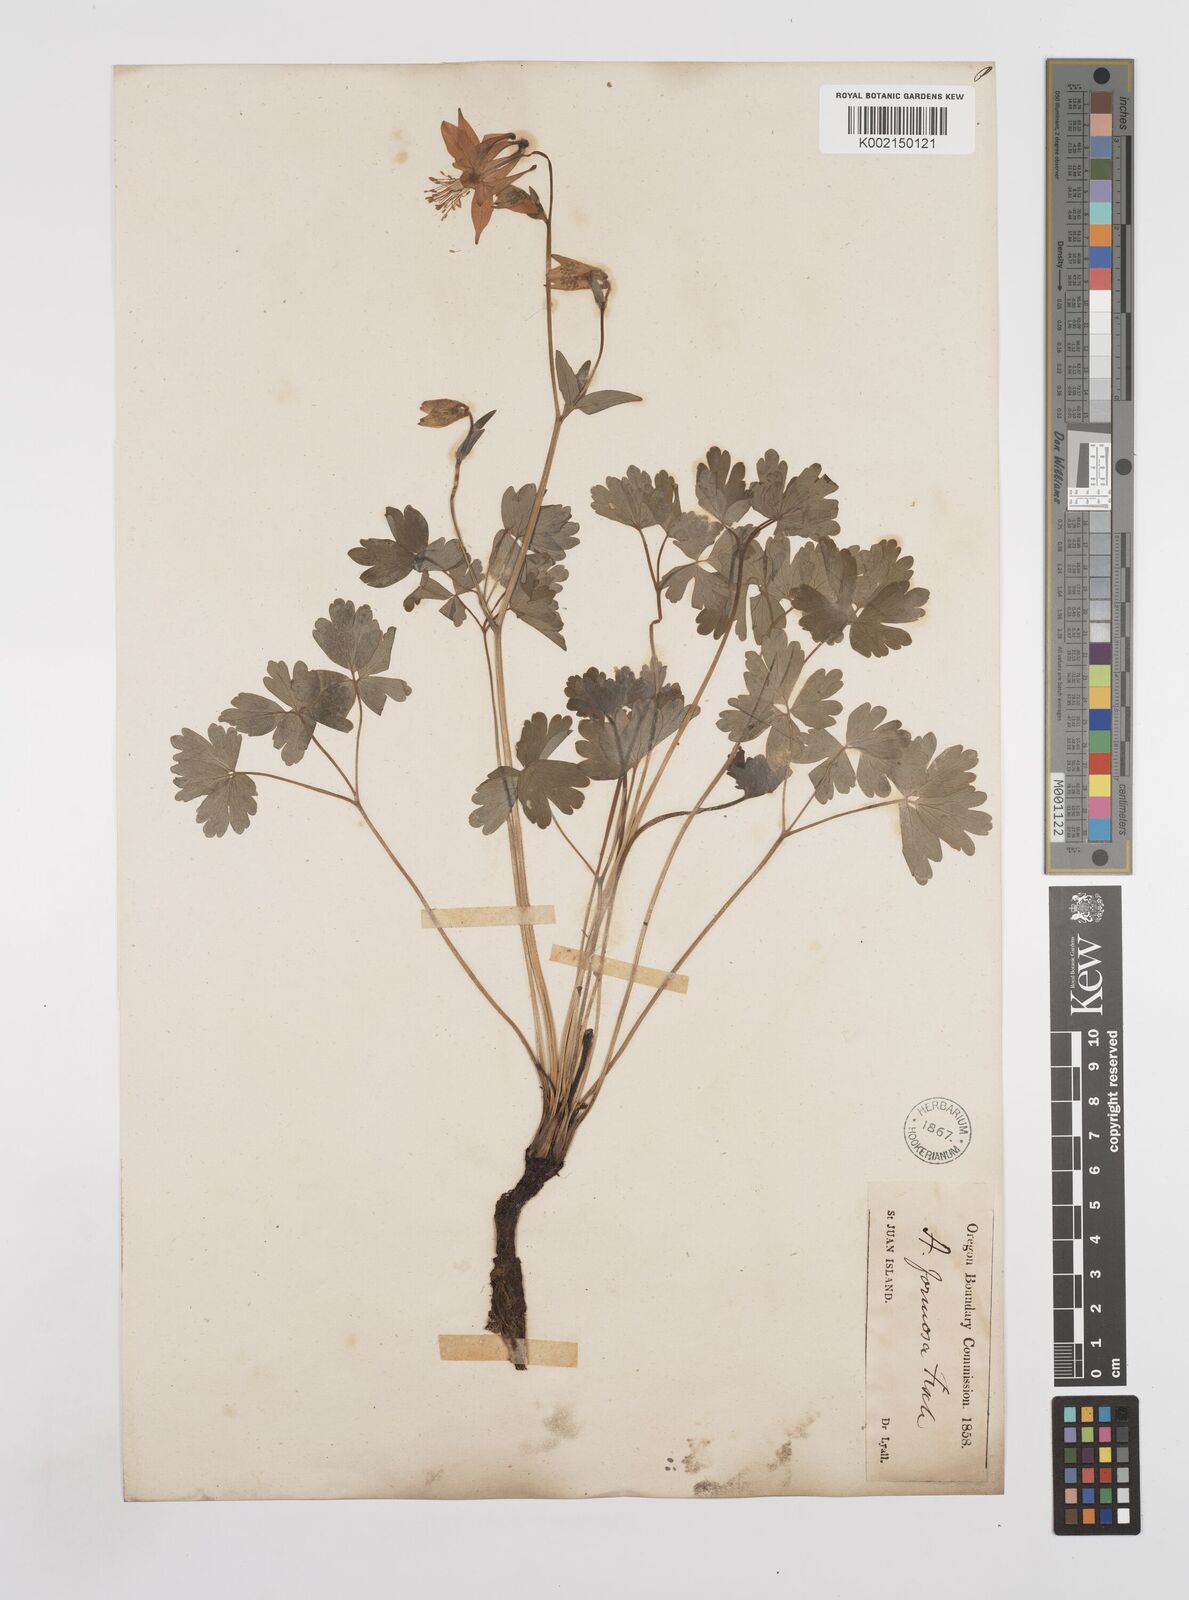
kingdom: Plantae
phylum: Tracheophyta
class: Magnoliopsida
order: Ranunculales
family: Ranunculaceae
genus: Aquilegia
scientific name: Aquilegia
